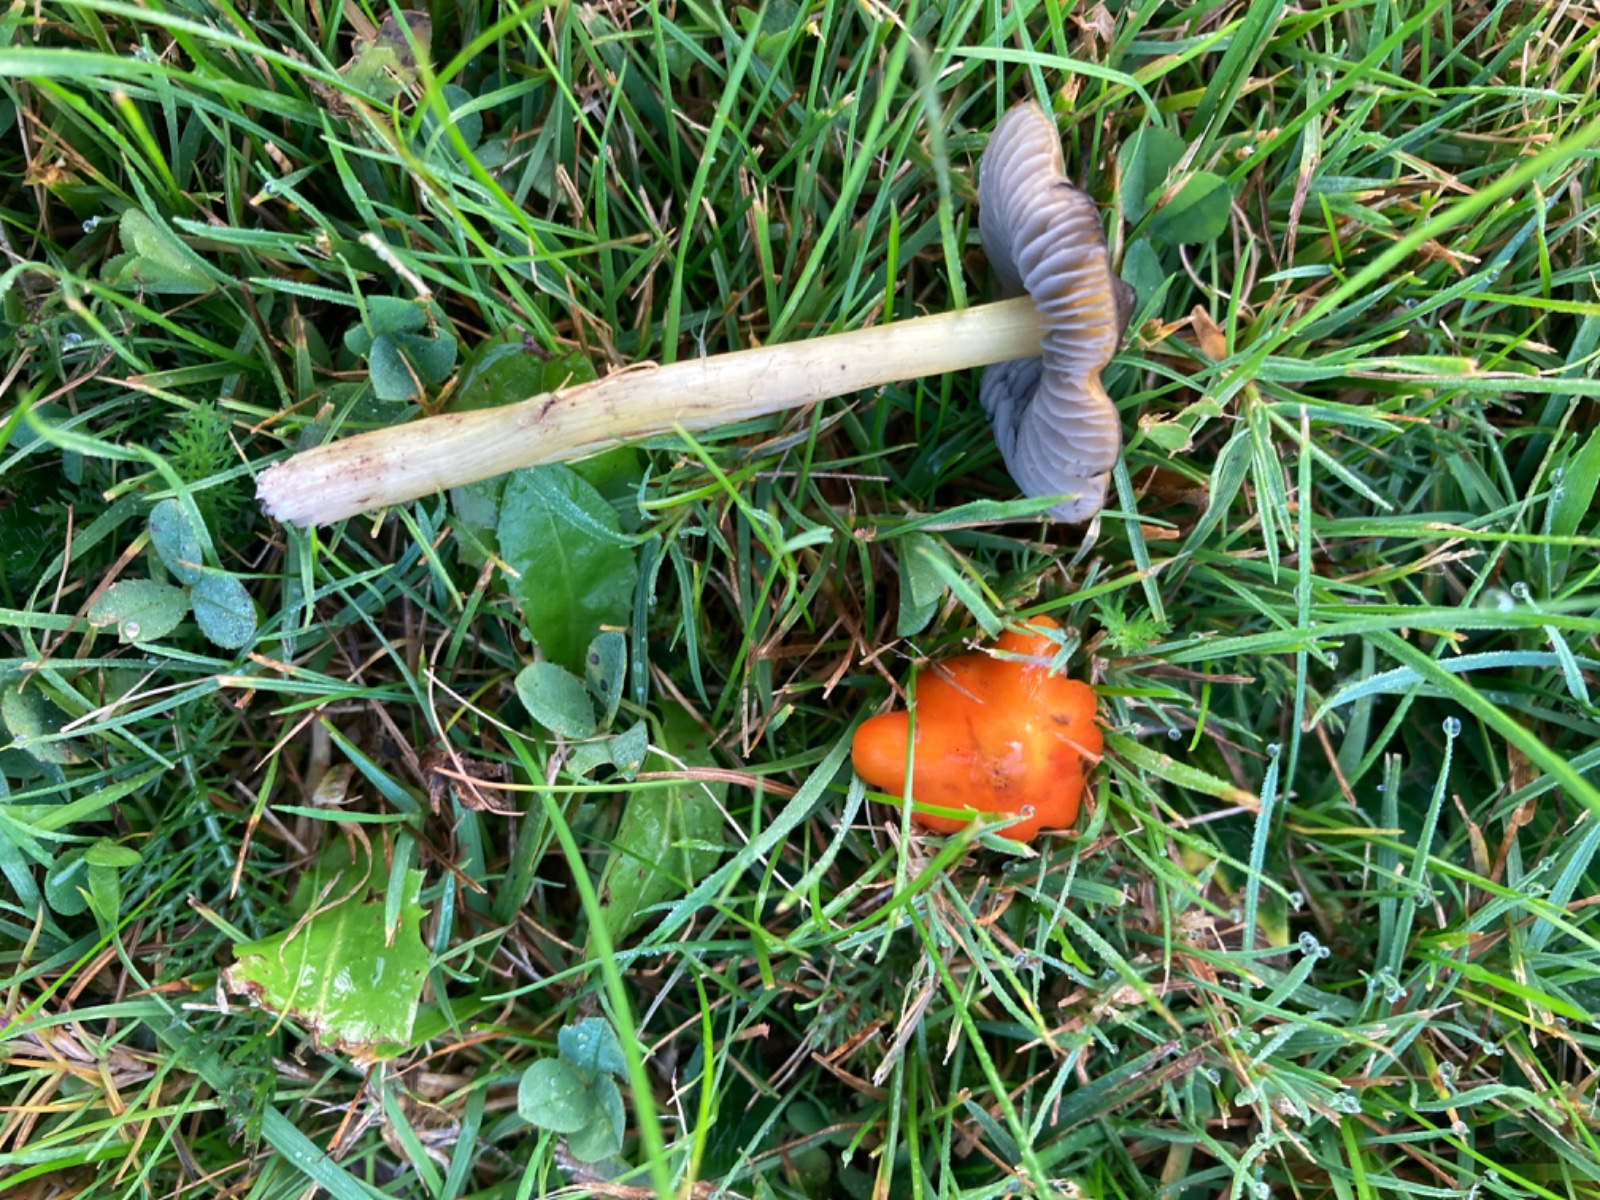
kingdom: Fungi
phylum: Basidiomycota
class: Agaricomycetes
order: Agaricales
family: Hygrophoraceae
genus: Hygrocybe
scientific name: Hygrocybe conica
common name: kegle-vokshat
